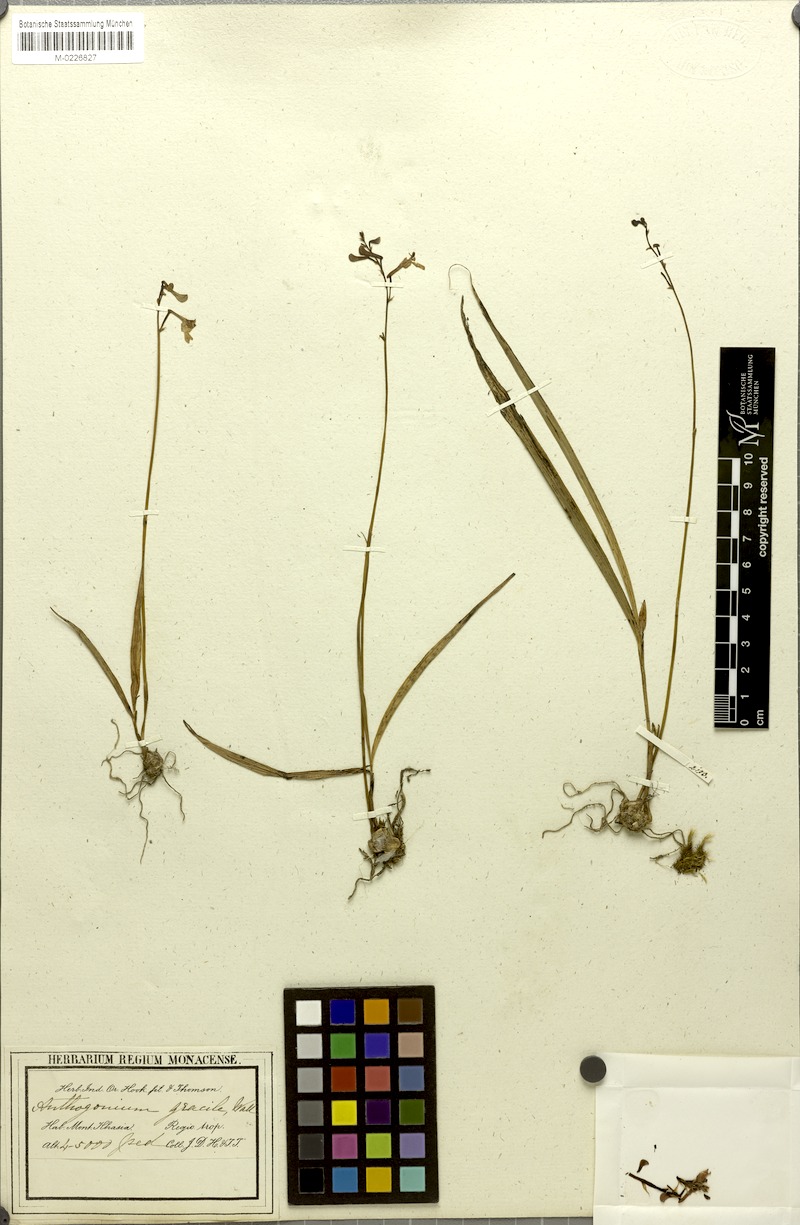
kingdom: Plantae
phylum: Tracheophyta
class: Liliopsida
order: Asparagales
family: Orchidaceae
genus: Anthogonium
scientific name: Anthogonium gracile
